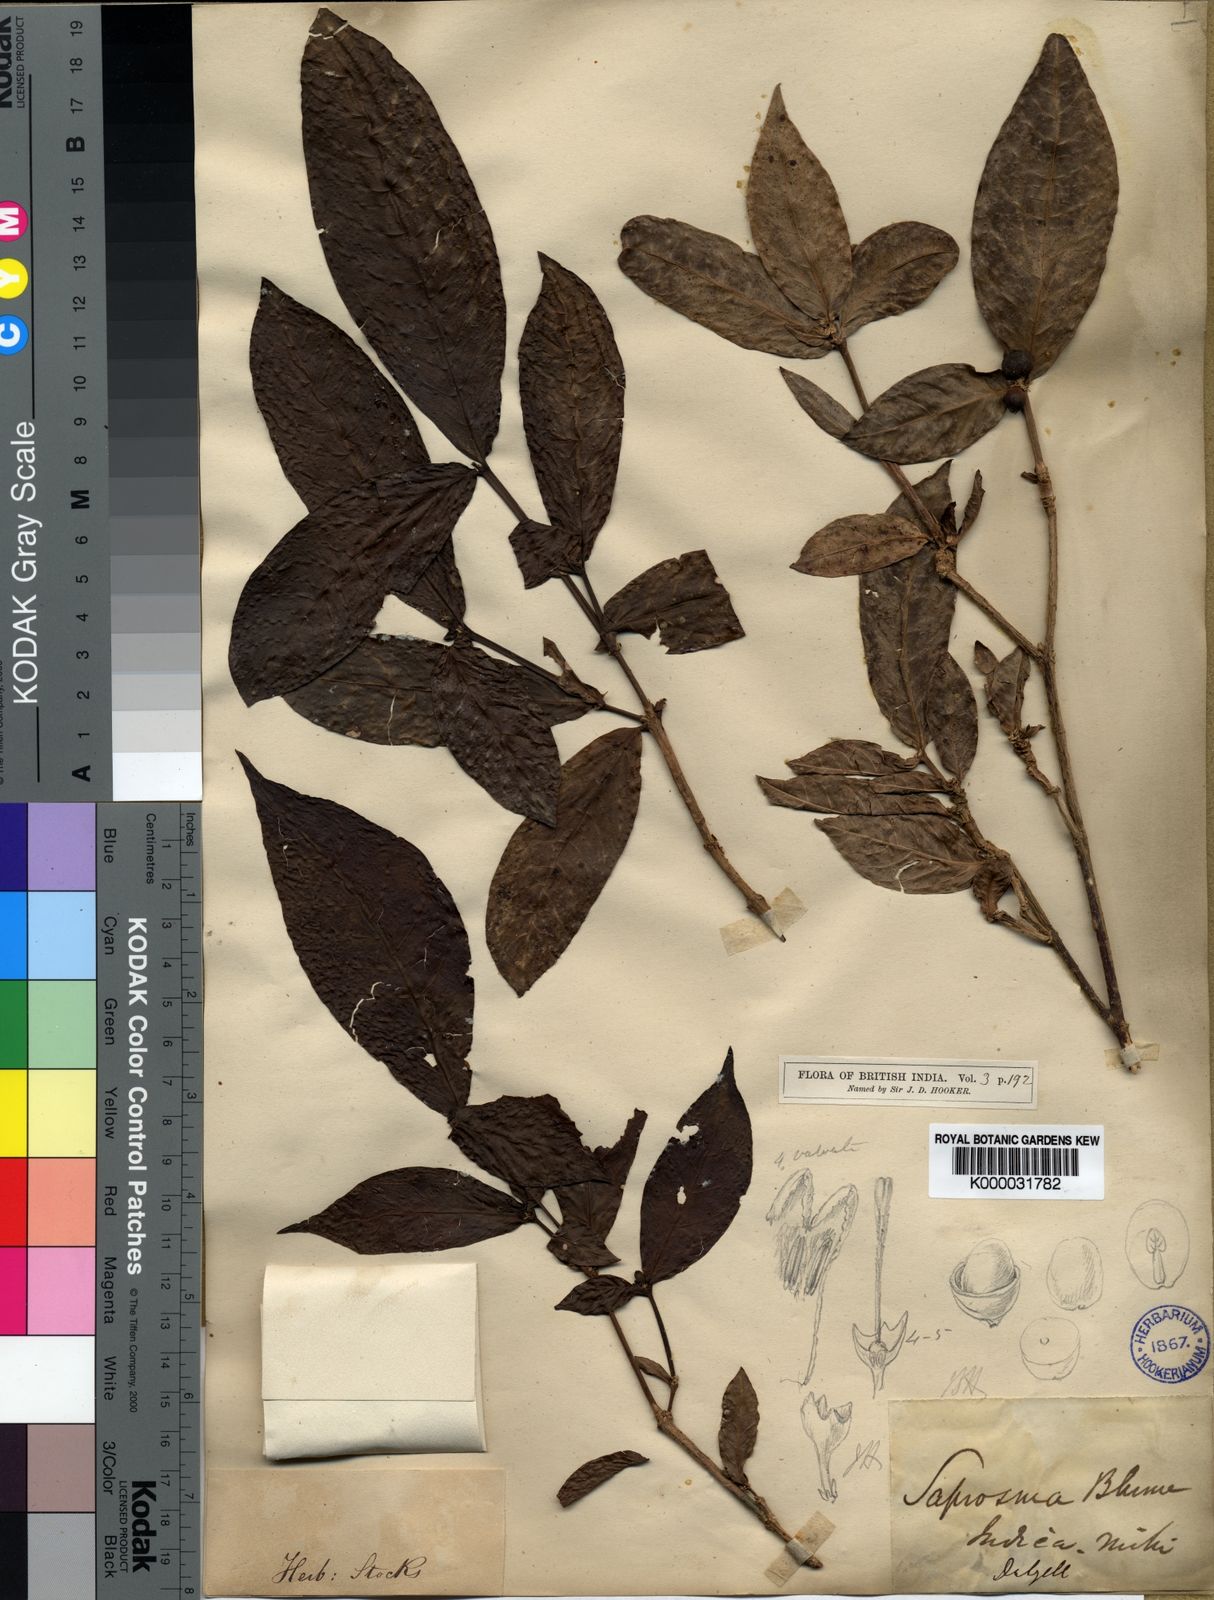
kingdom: Plantae
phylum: Tracheophyta
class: Magnoliopsida
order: Gentianales
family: Rubiaceae
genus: Saprosma
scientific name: Saprosma glomerata
